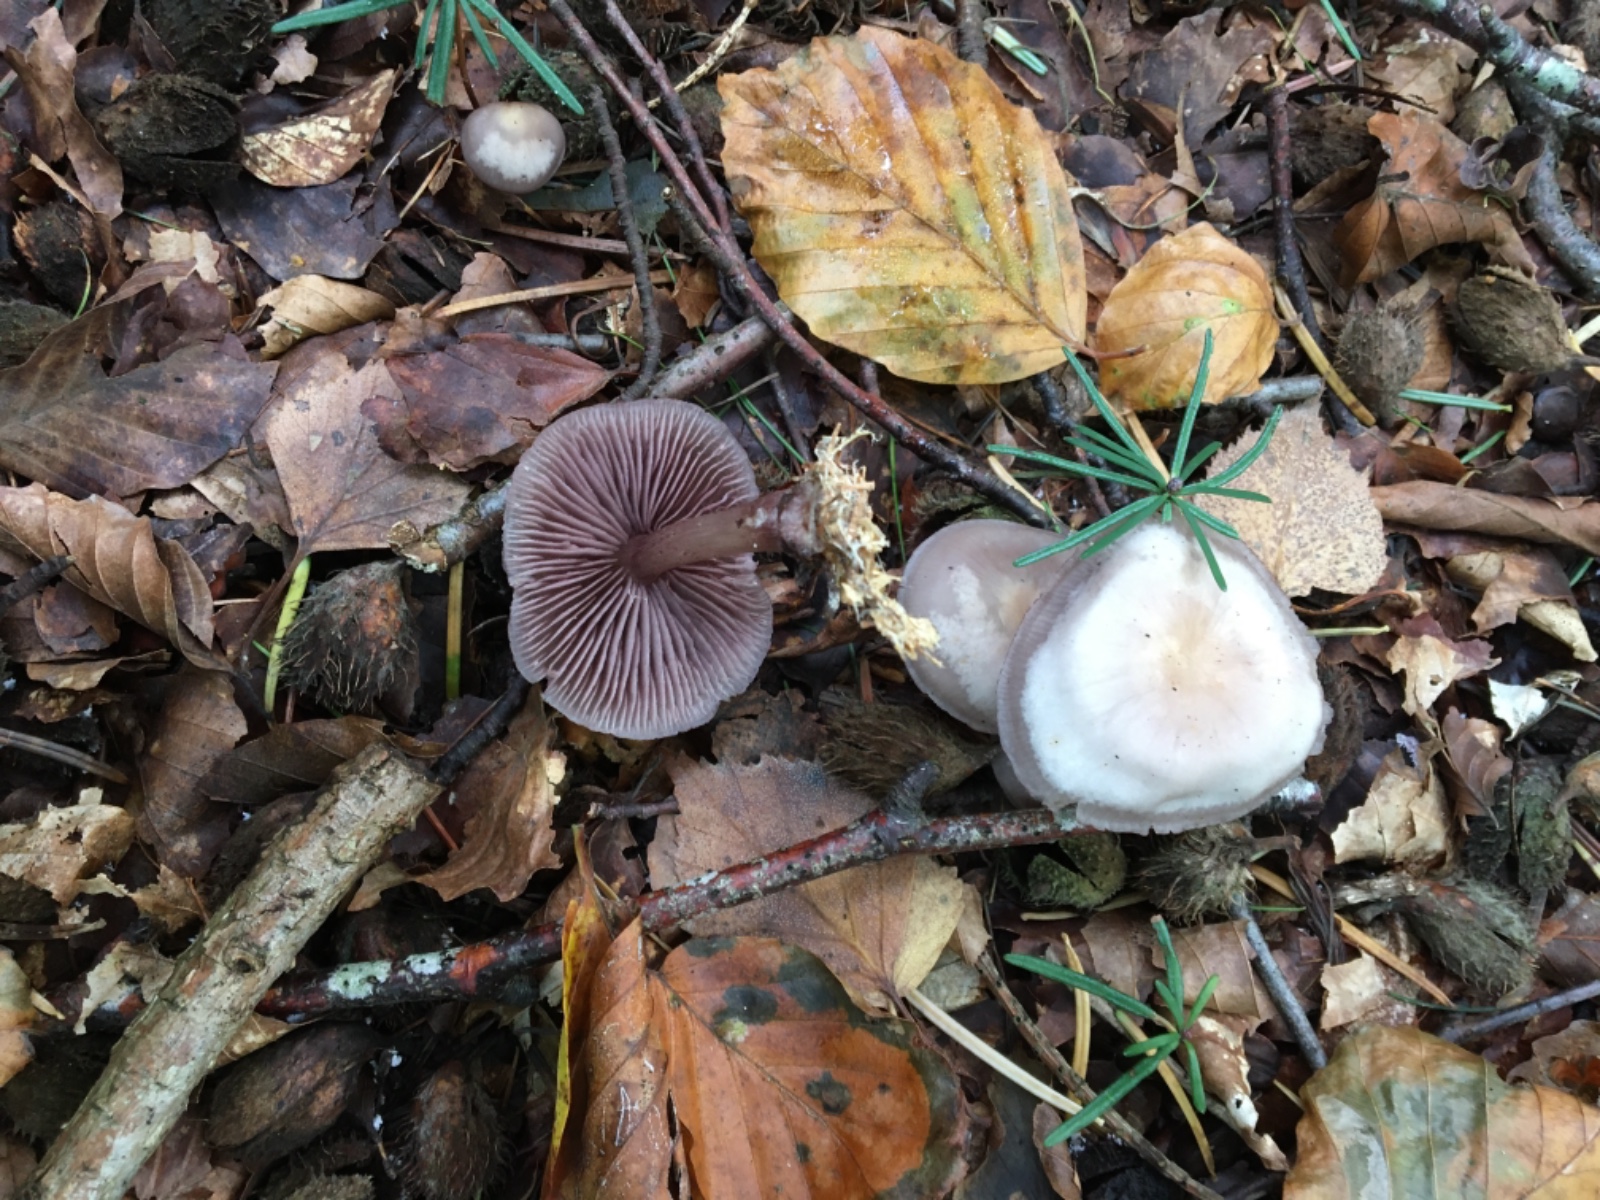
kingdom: Fungi
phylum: Basidiomycota
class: Agaricomycetes
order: Agaricales
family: Mycenaceae
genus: Mycena
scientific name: Mycena pelianthina
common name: mørkbladet huesvamp
